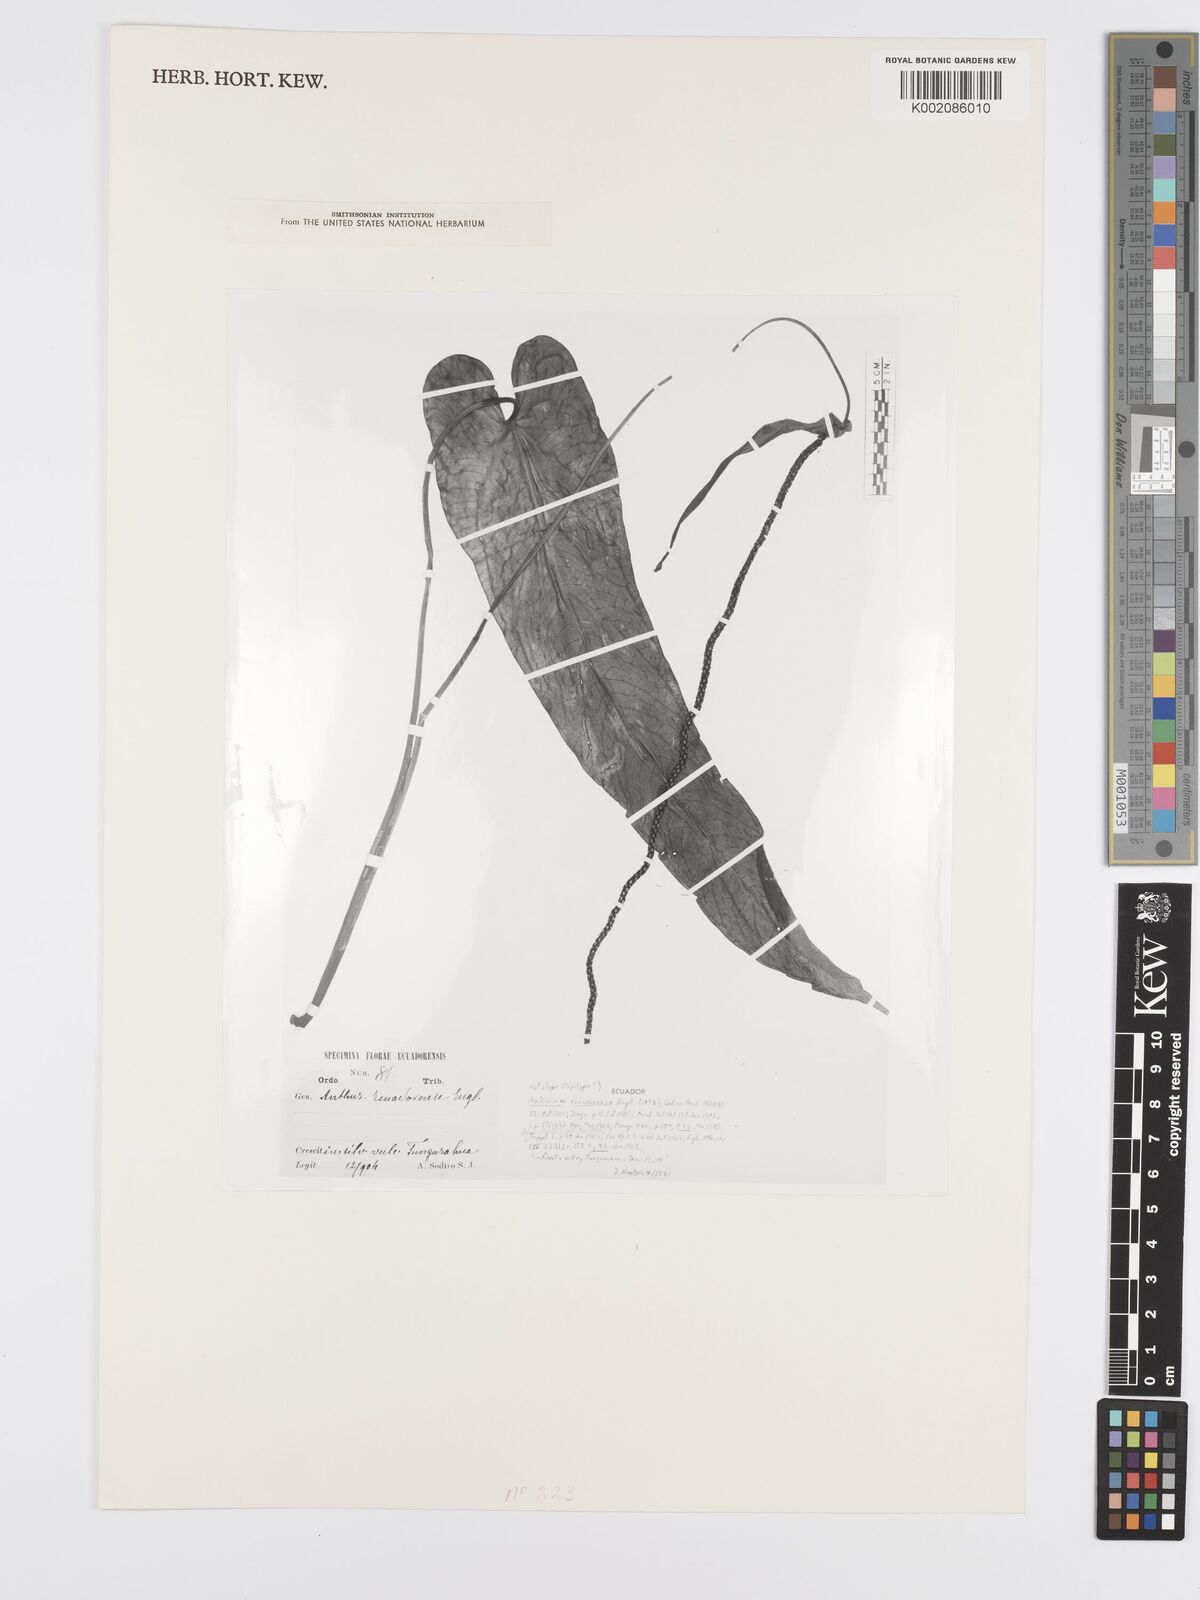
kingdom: Plantae
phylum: Tracheophyta
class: Liliopsida
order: Alismatales
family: Araceae
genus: Anthurium
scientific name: Anthurium ecuadorense
